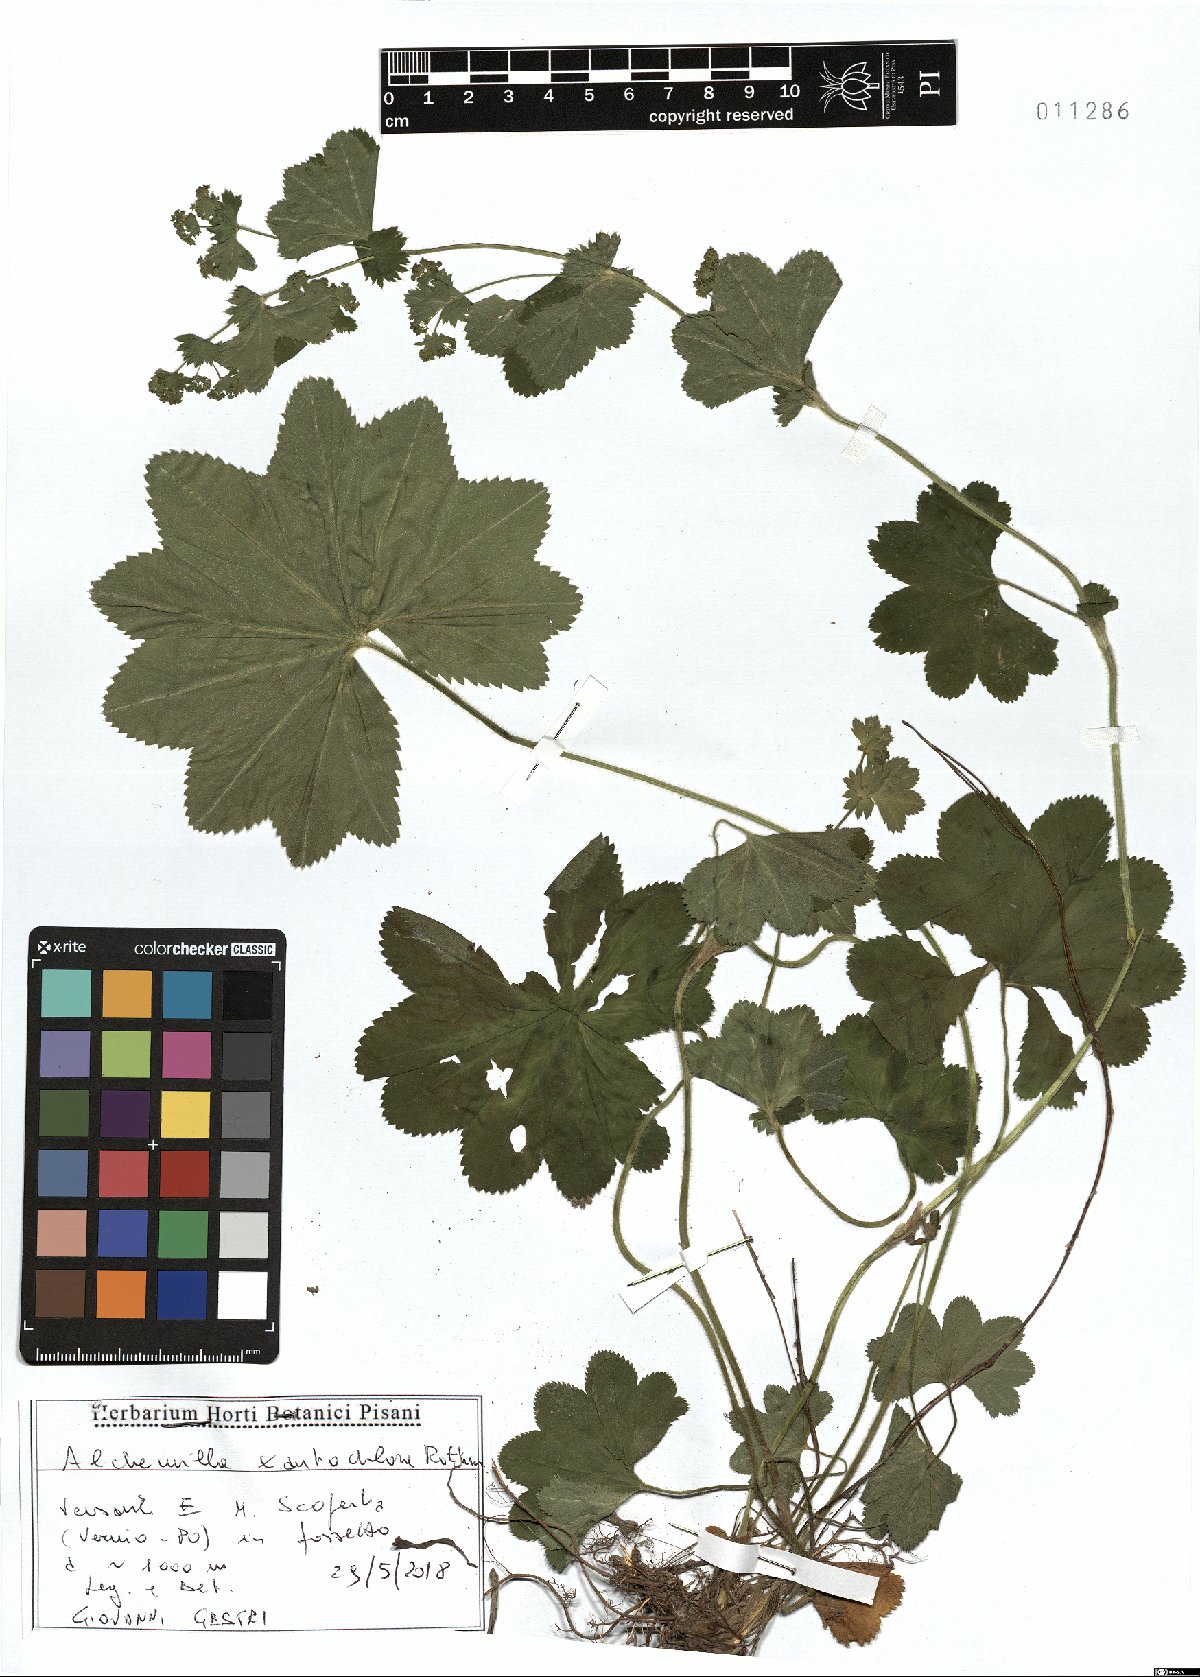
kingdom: Plantae
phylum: Tracheophyta
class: Magnoliopsida
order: Rosales
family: Rosaceae
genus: Alchemilla
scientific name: Alchemilla xanthochlora
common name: Intermediate lady's-mantle
